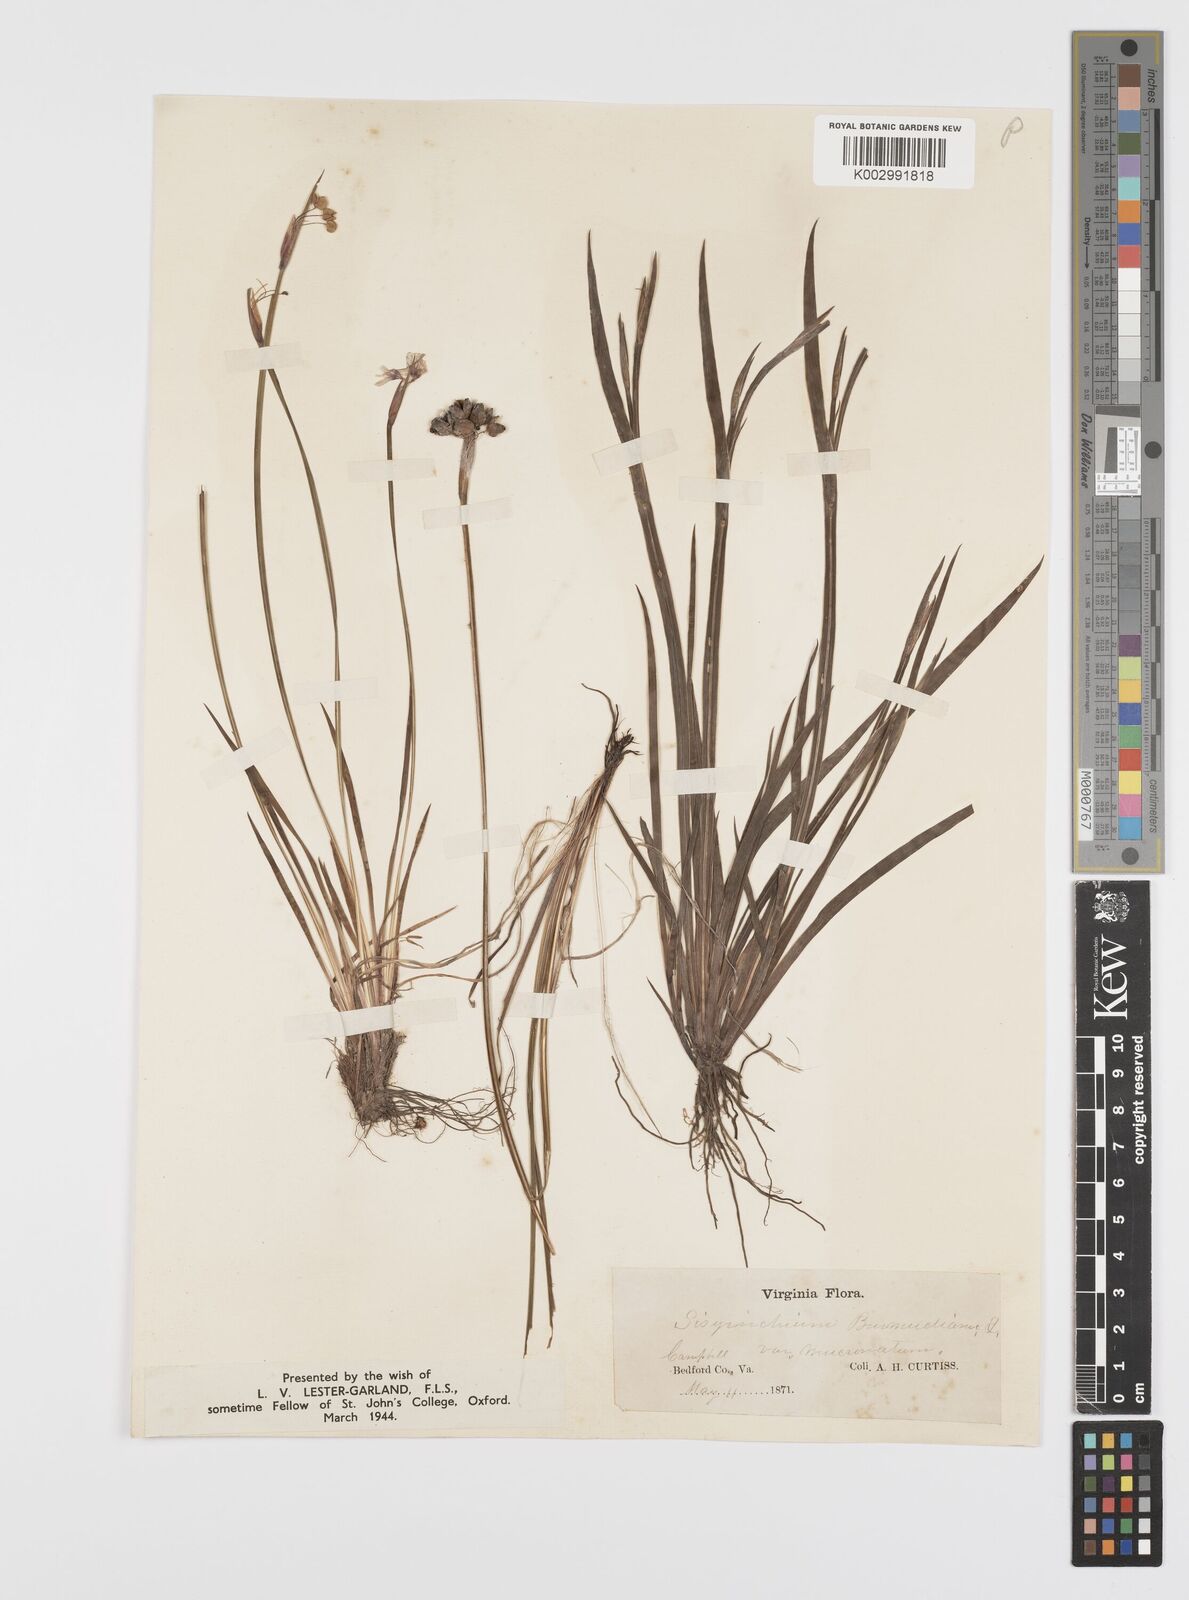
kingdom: Plantae
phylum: Tracheophyta
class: Liliopsida
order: Asparagales
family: Iridaceae
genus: Sisyrinchium
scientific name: Sisyrinchium bermudiana
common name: Blue-eyed-grass
